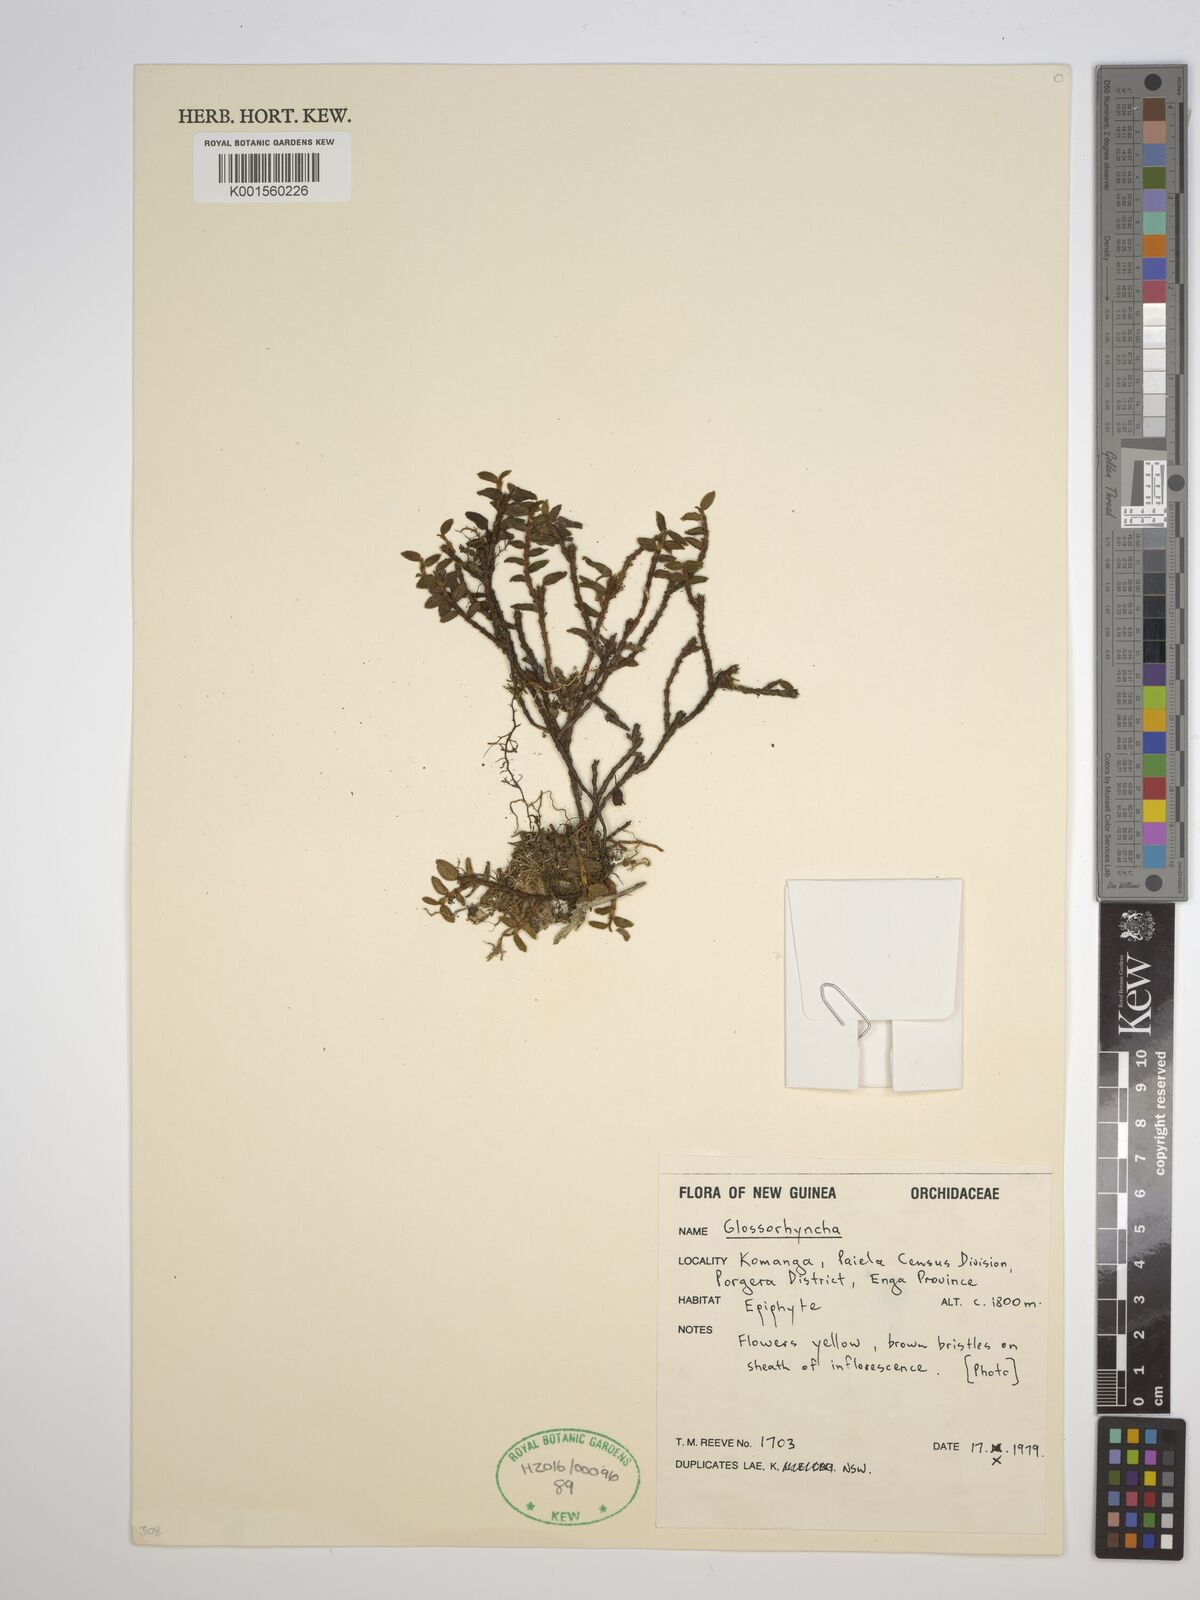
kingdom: Plantae
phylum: Tracheophyta
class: Liliopsida
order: Asparagales
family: Orchidaceae
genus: Glomera
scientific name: Glomera
